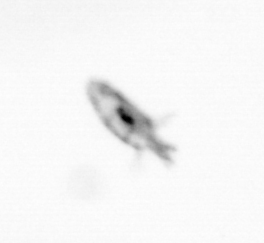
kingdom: Animalia
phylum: Arthropoda
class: Copepoda
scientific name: Copepoda
